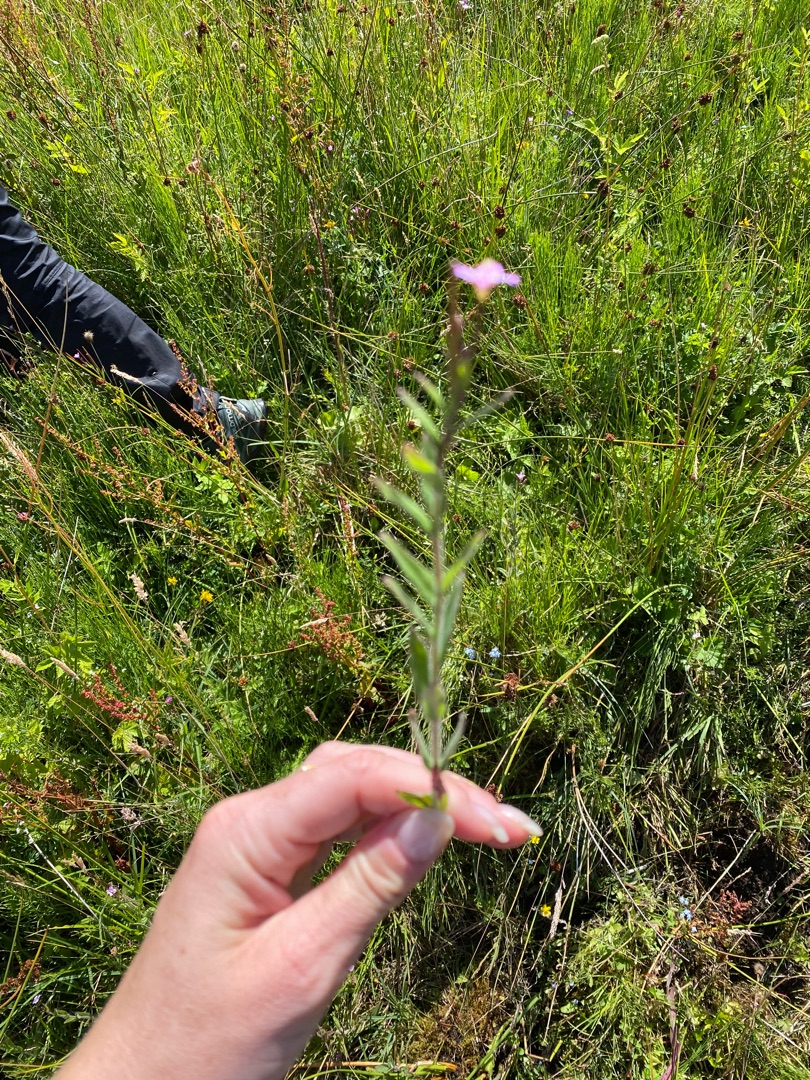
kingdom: Plantae
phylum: Tracheophyta
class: Magnoliopsida
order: Myrtales
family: Onagraceae
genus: Epilobium
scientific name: Epilobium parviflorum
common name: Dunet dueurt
